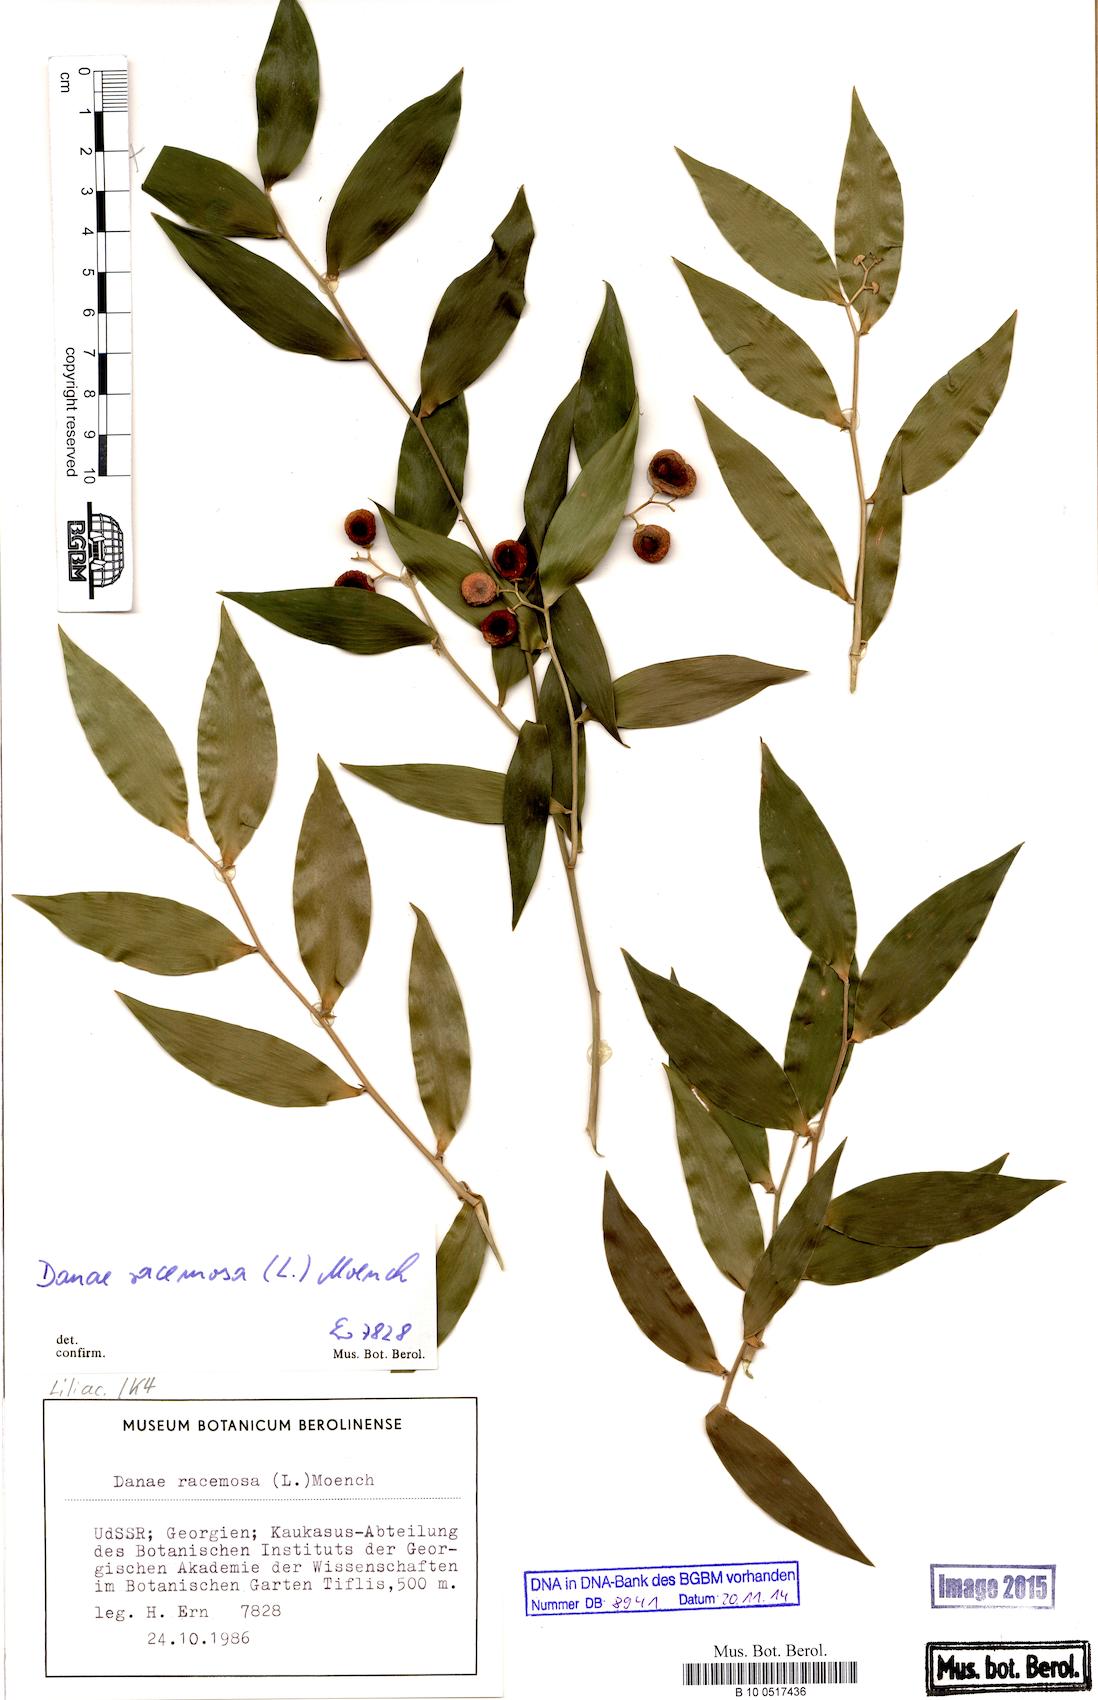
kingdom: Plantae
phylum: Tracheophyta
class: Liliopsida
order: Asparagales
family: Asparagaceae
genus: Danae
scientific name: Danae racemosa
